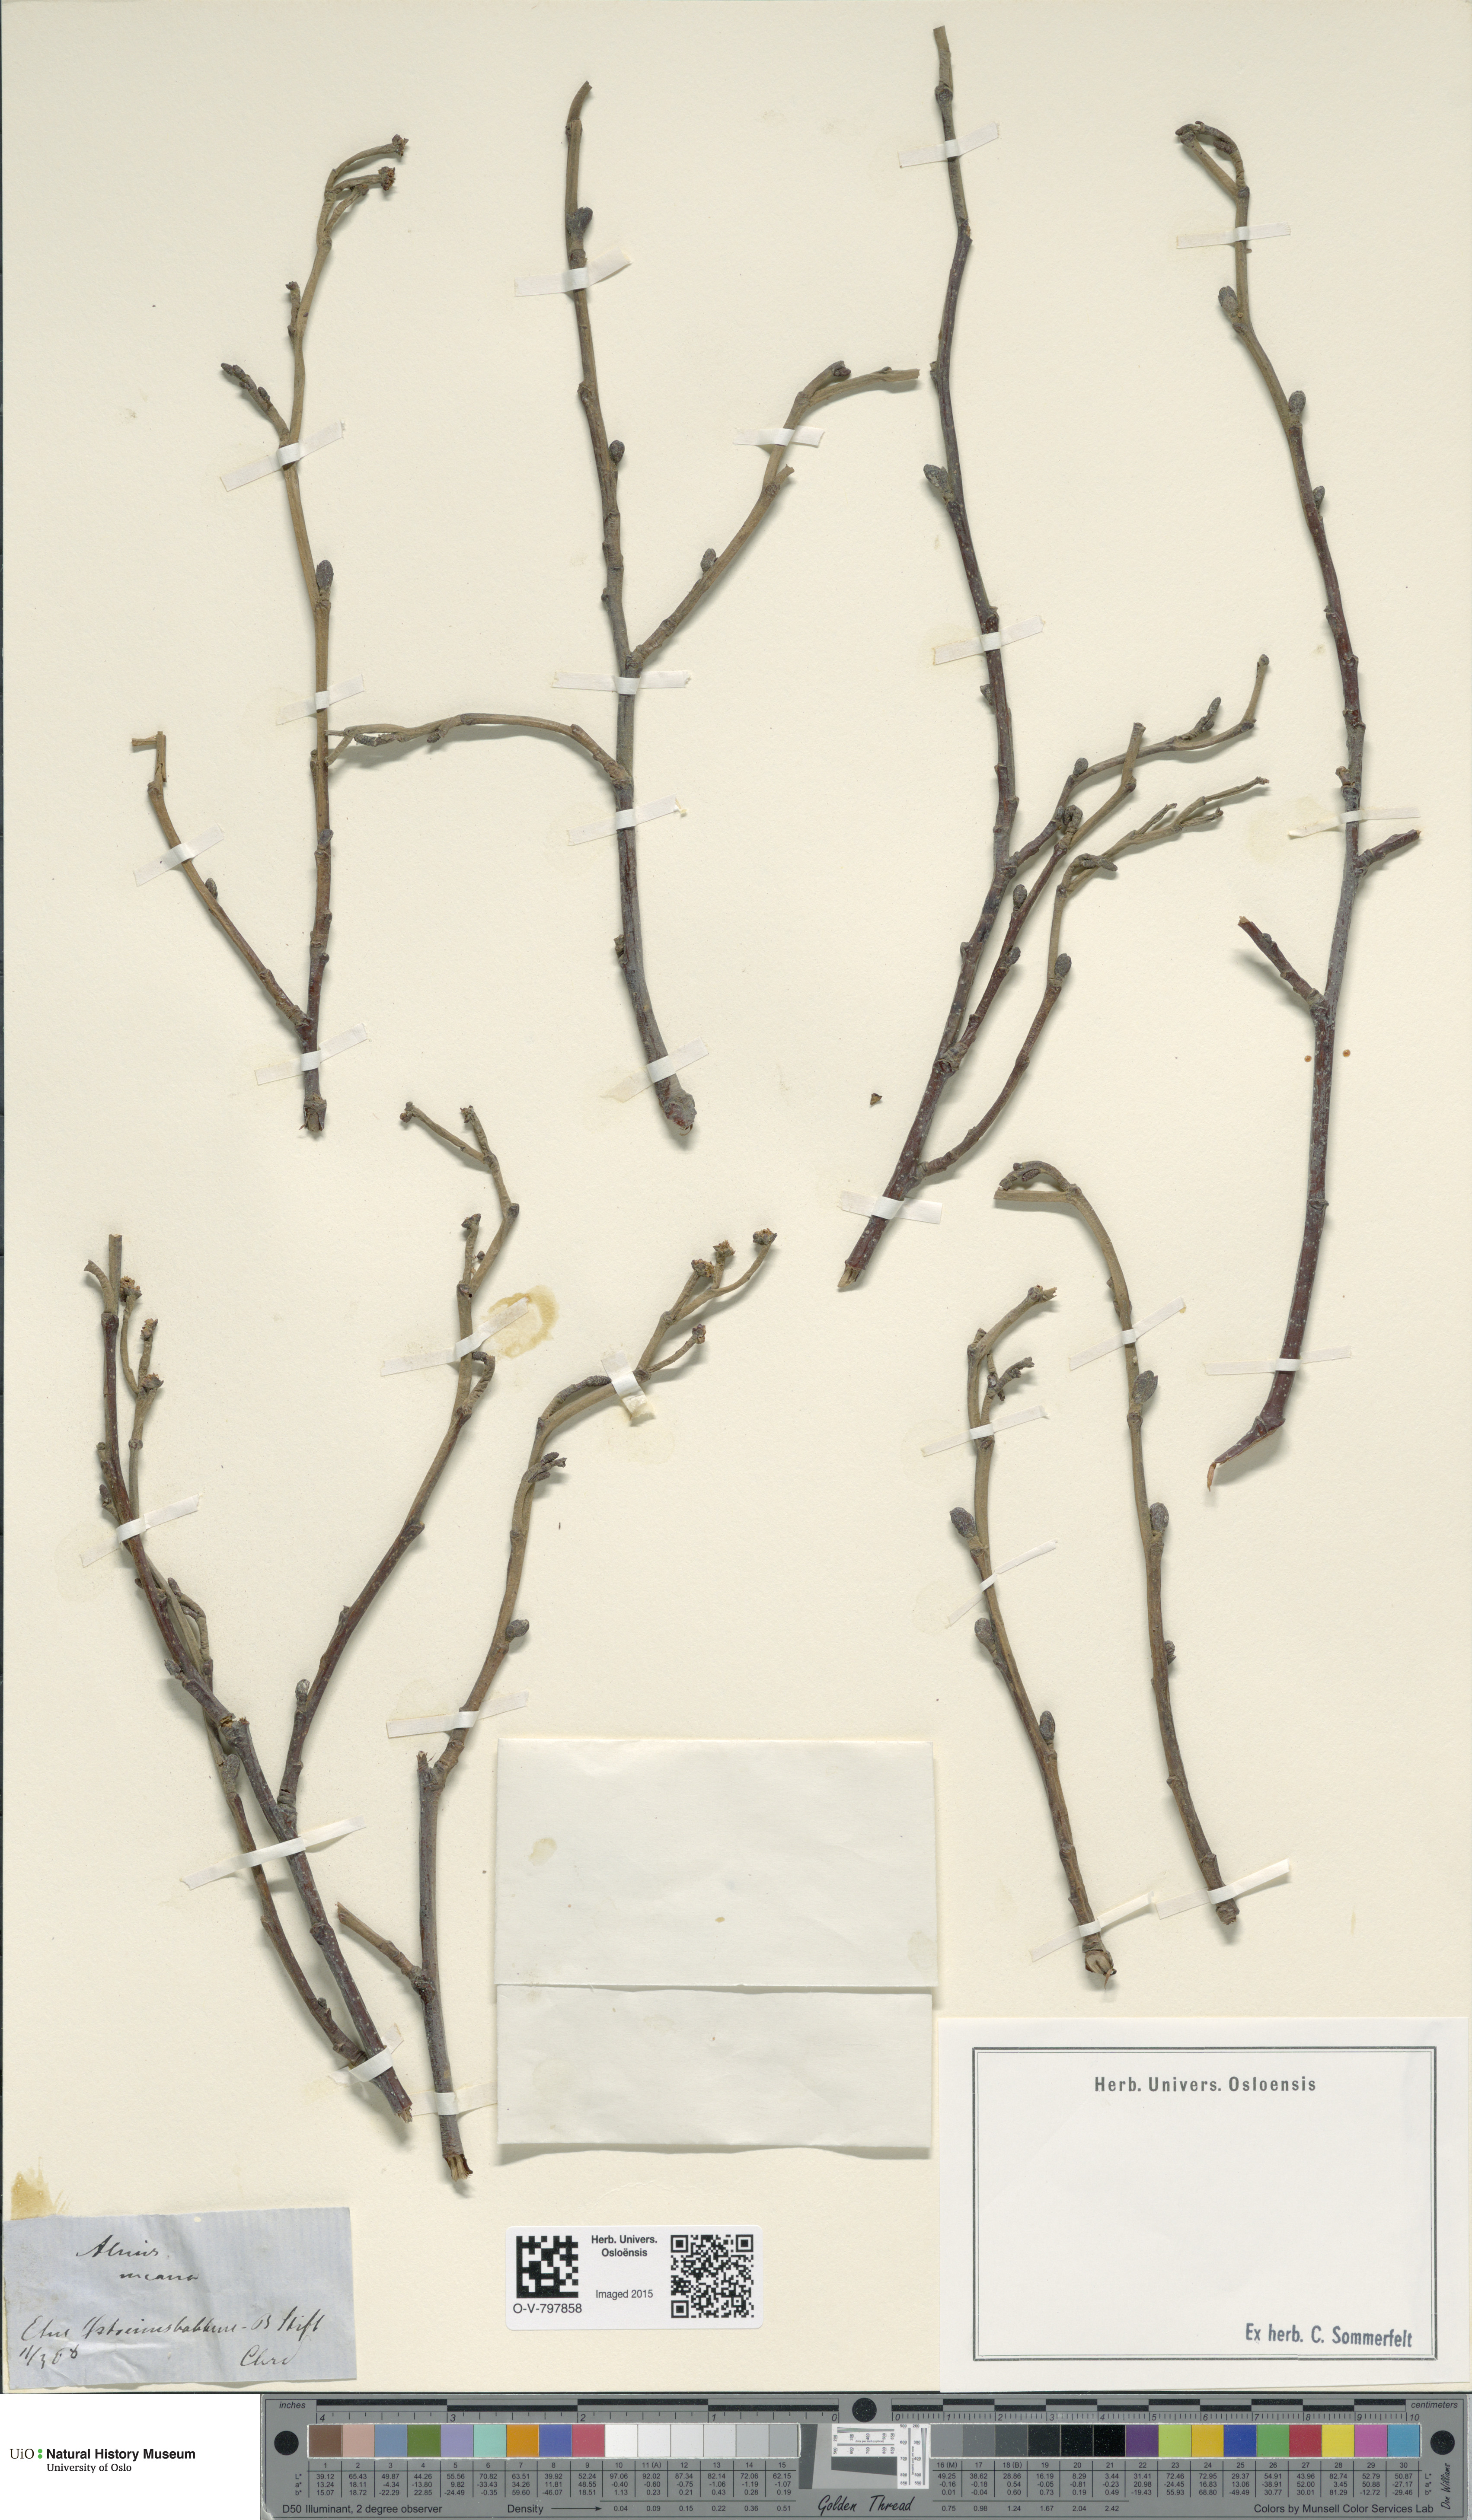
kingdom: Plantae
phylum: Tracheophyta
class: Magnoliopsida
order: Fagales
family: Betulaceae
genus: Alnus
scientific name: Alnus incana
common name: Grey alder
